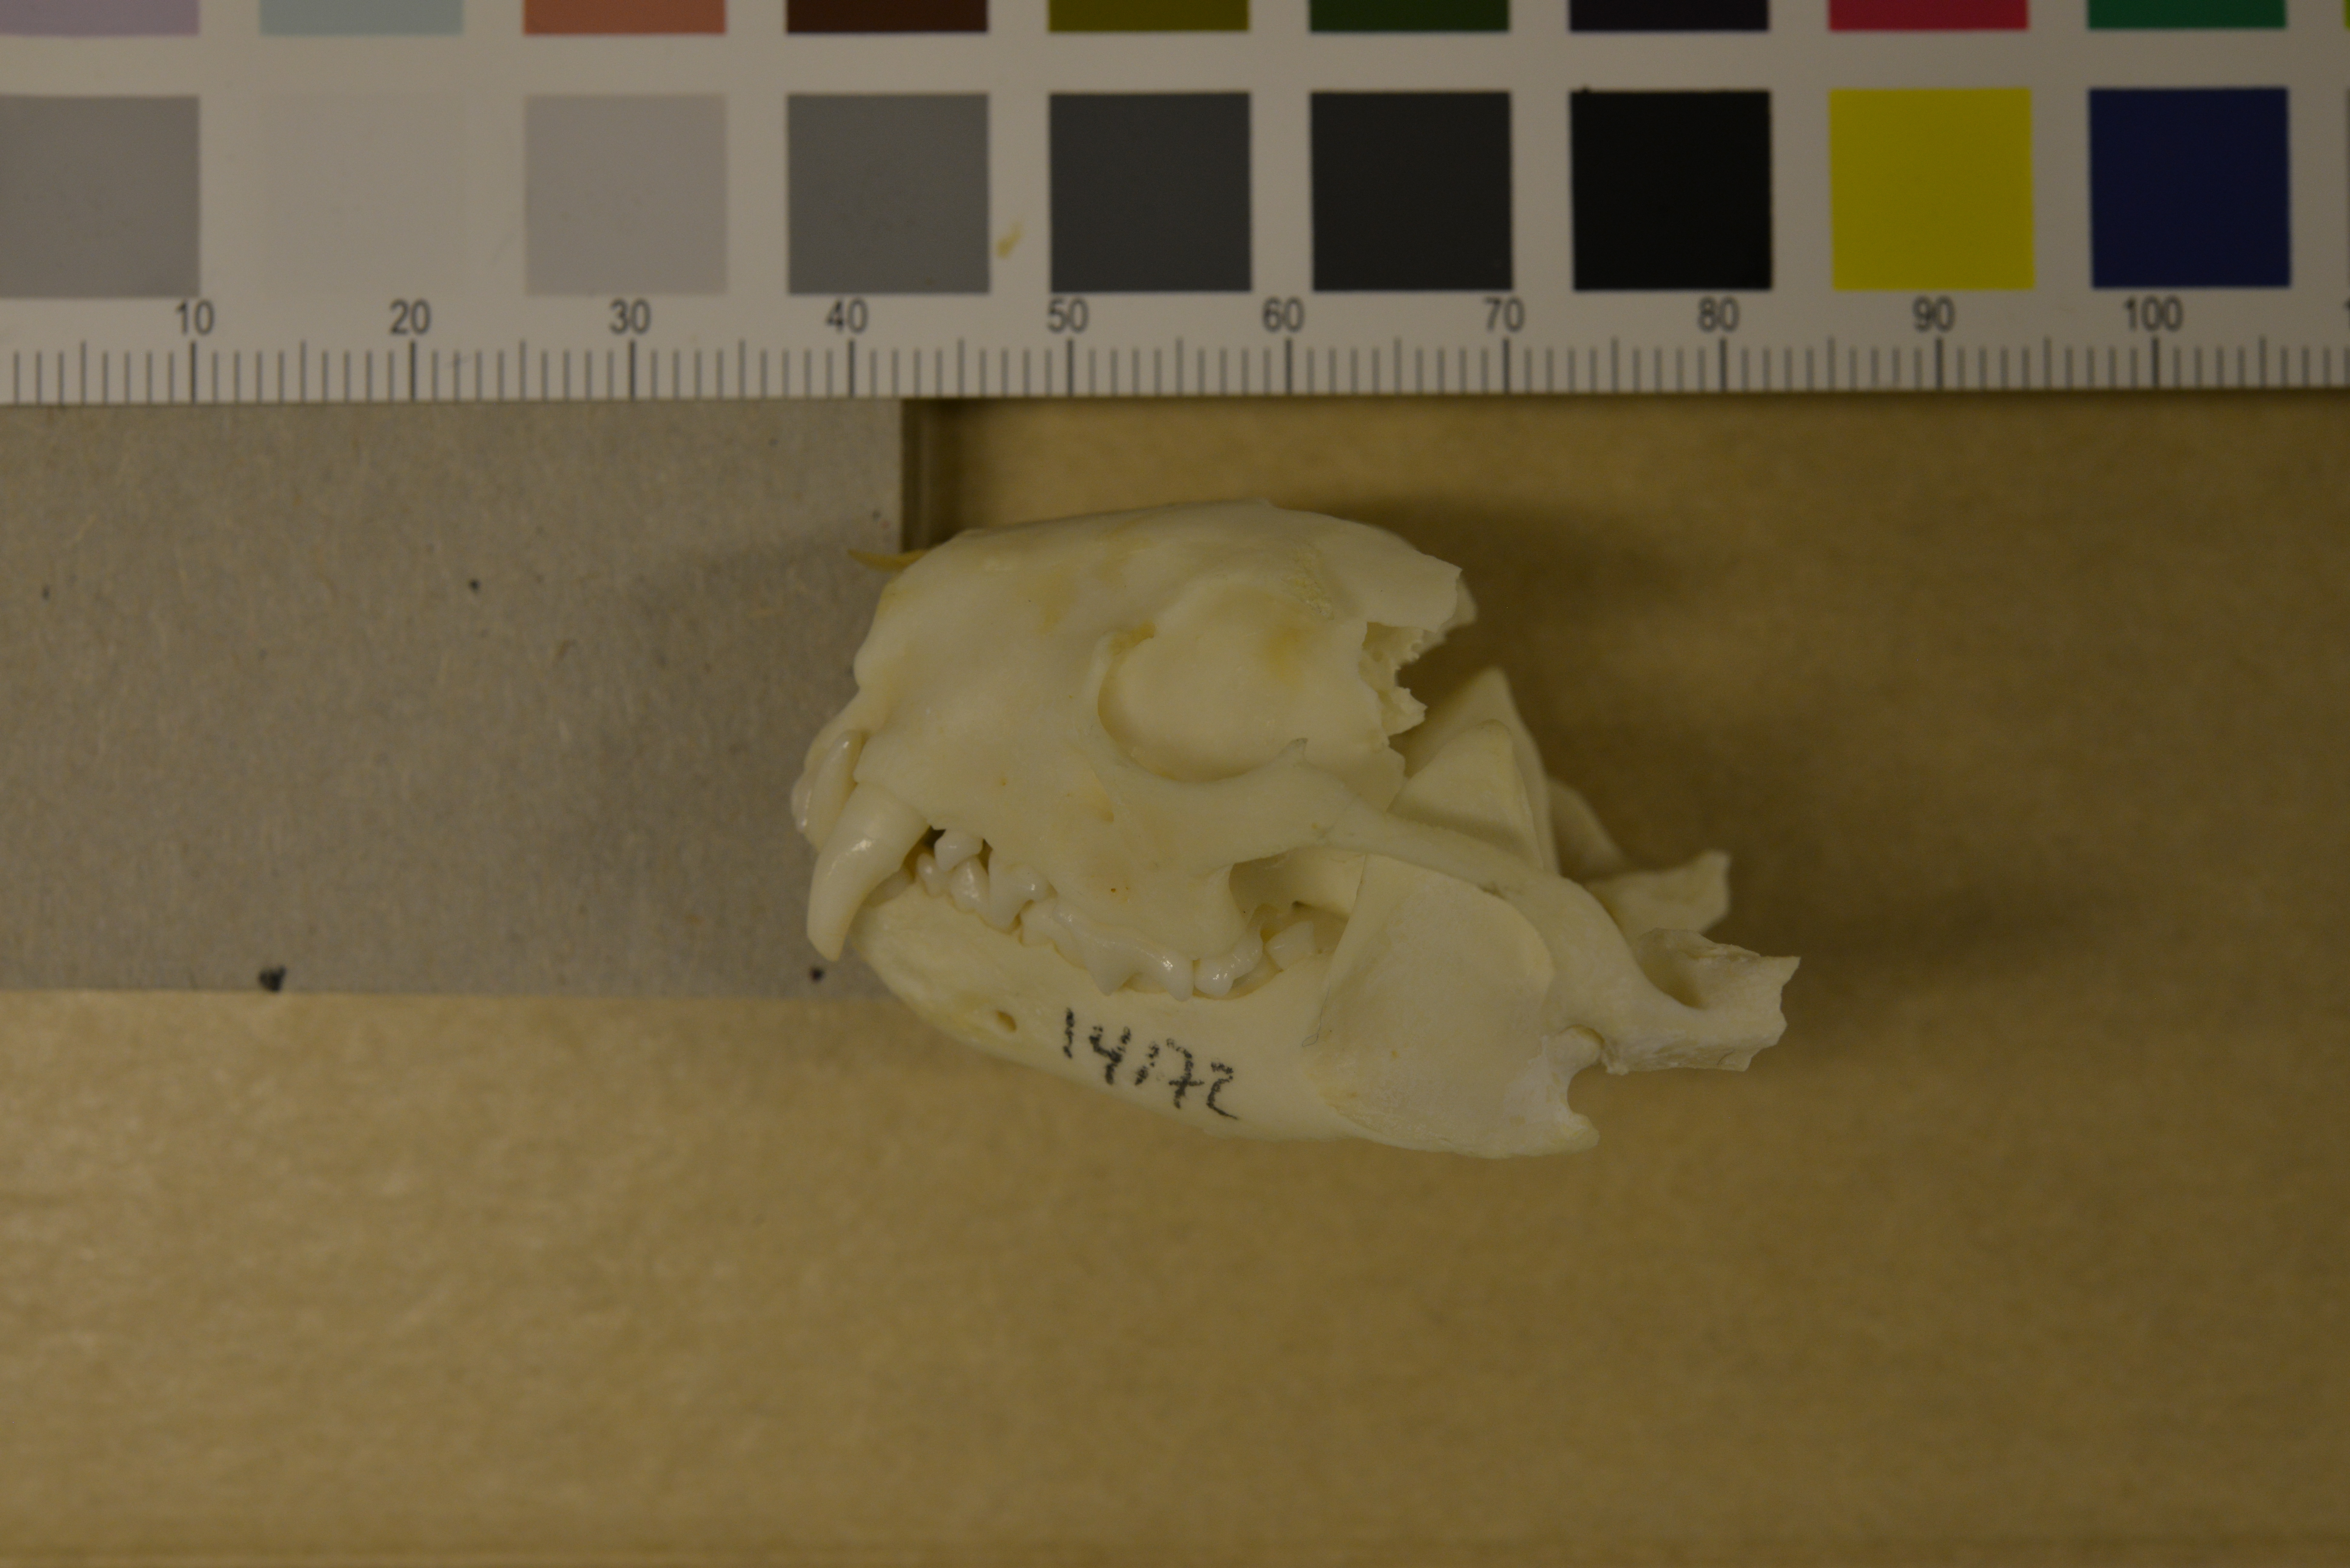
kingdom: Animalia
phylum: Chordata
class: Mammalia
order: Carnivora
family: Mustelidae
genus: Mustela
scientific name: Mustela putorius
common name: European polecat
